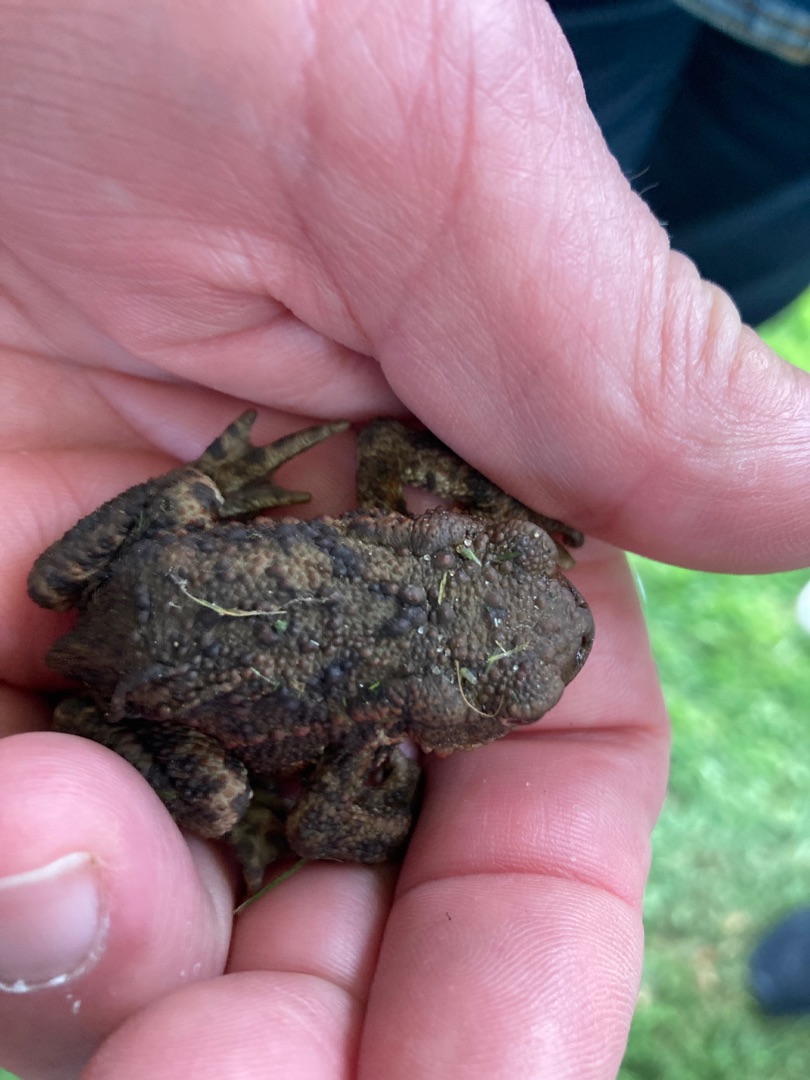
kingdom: Animalia
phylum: Chordata
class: Amphibia
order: Anura
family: Bufonidae
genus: Bufo
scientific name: Bufo bufo
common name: Skrubtudse
